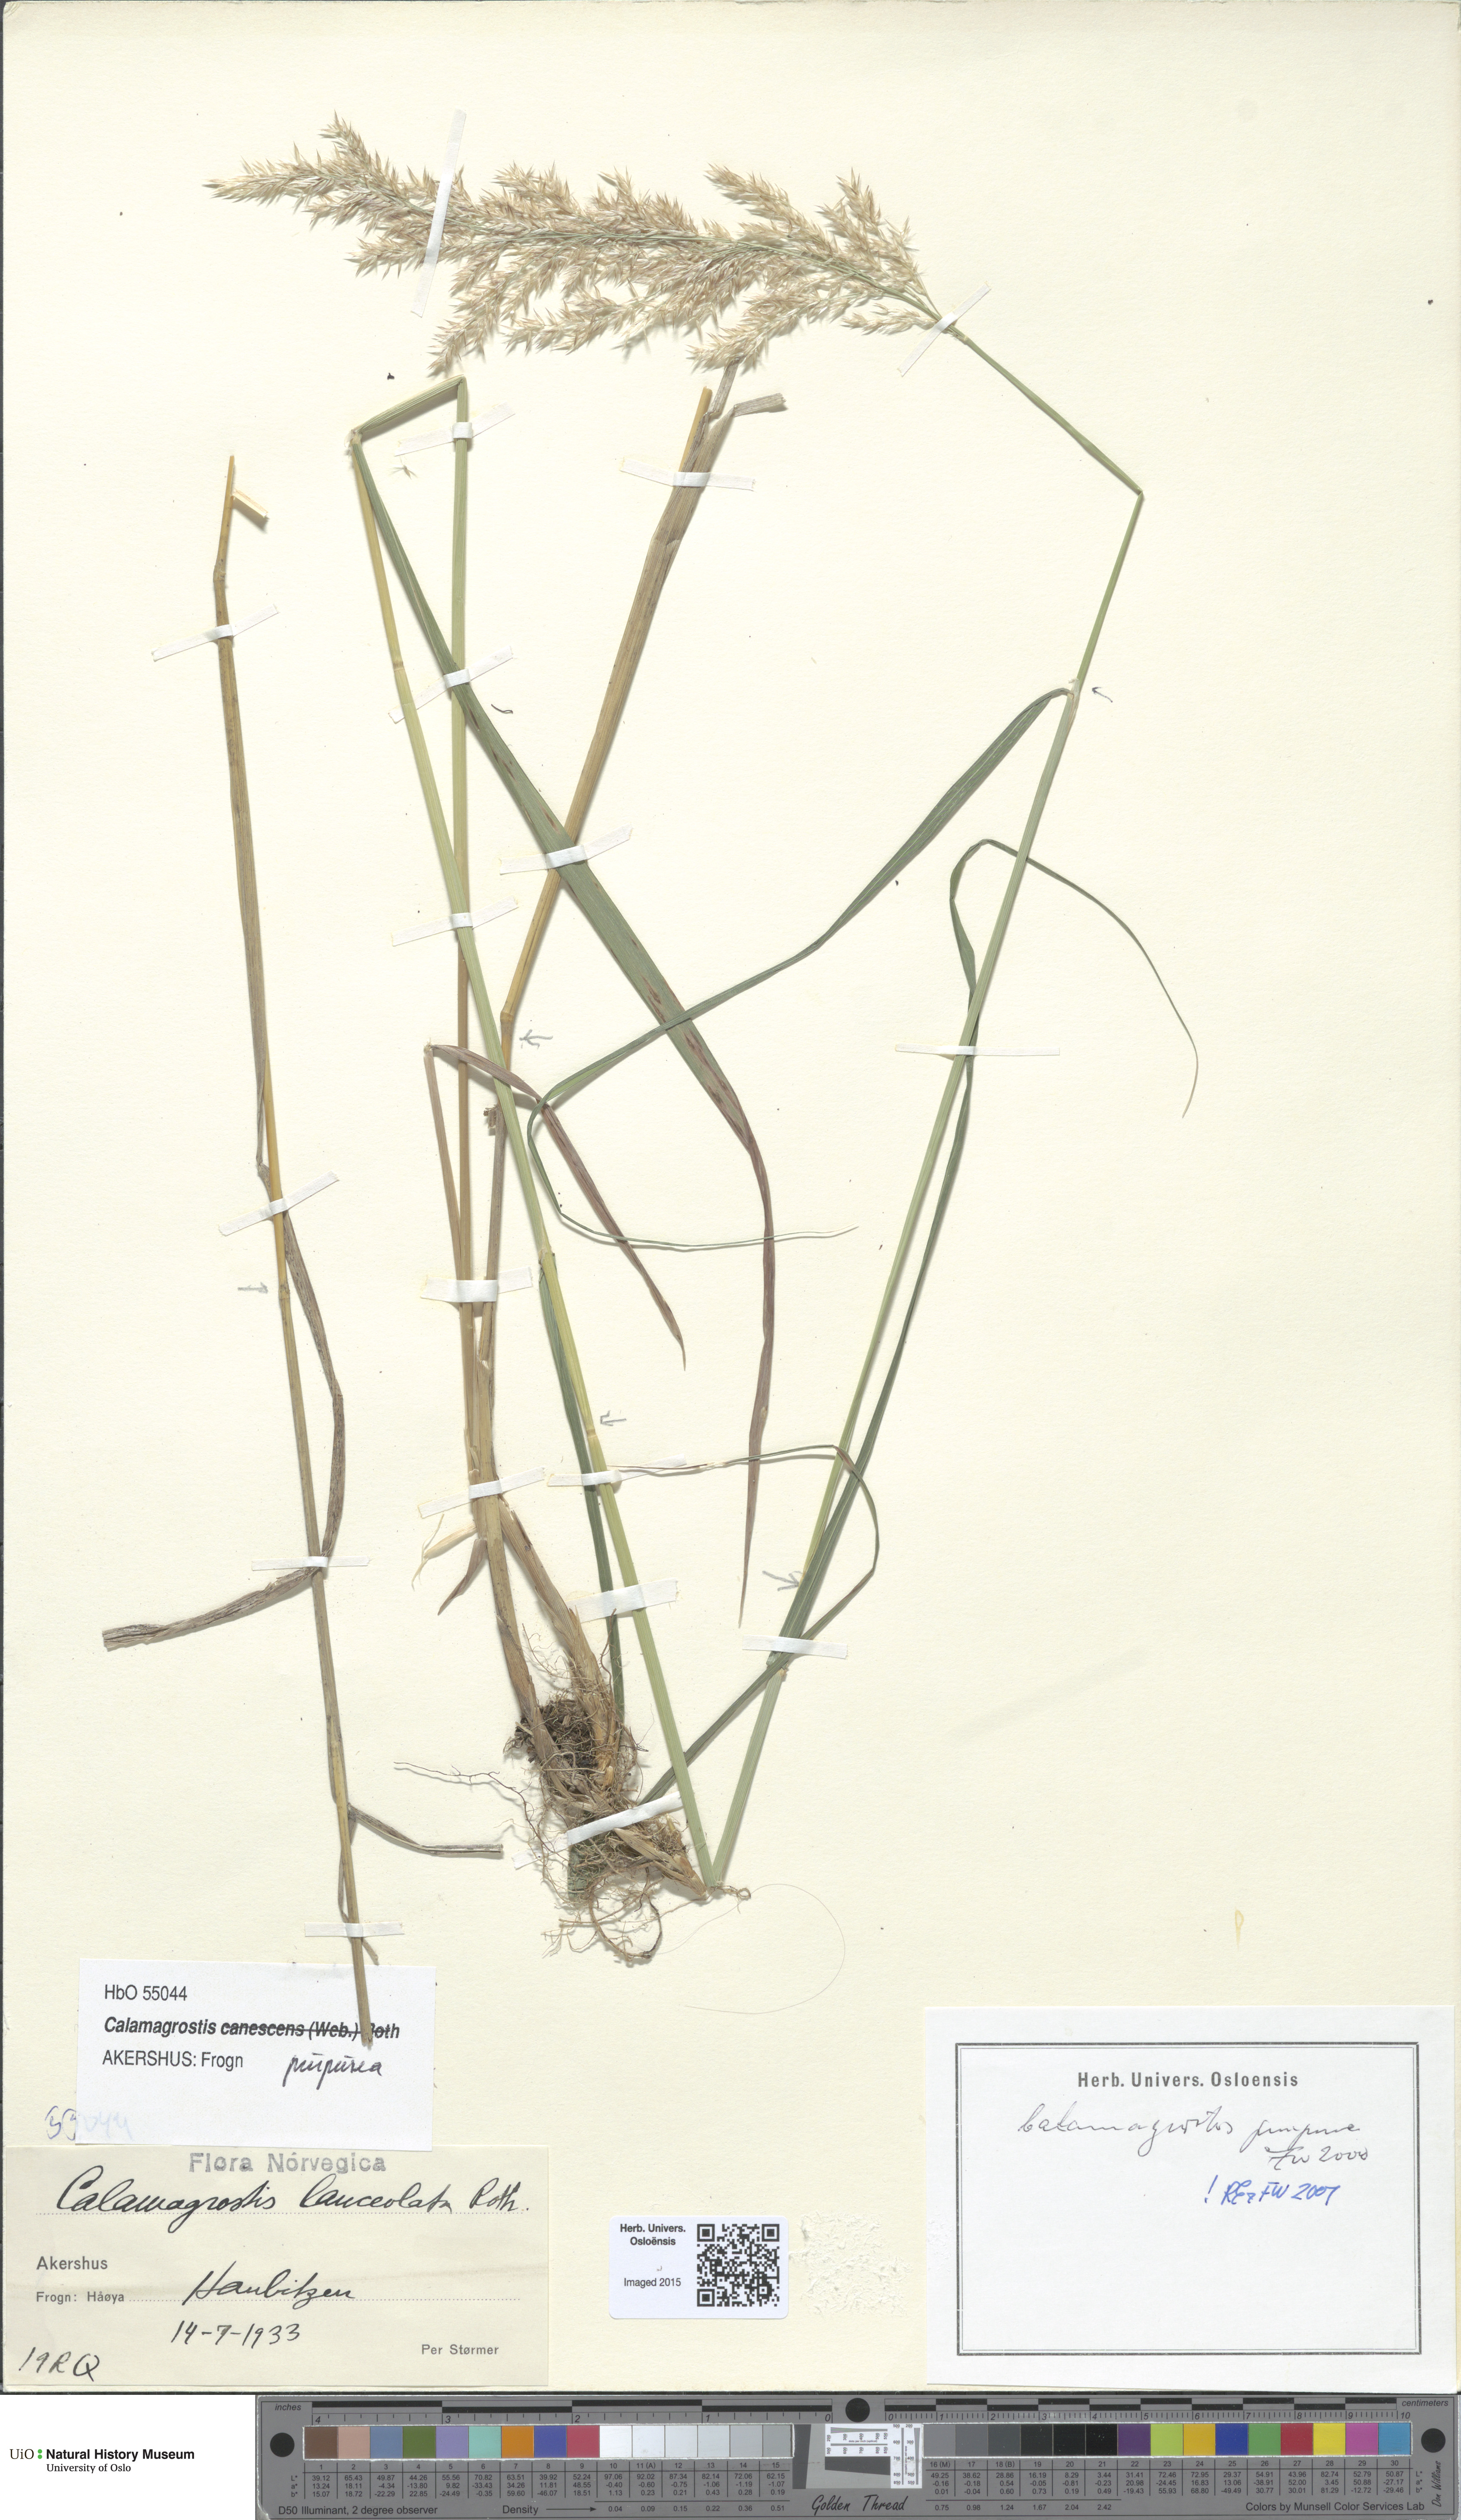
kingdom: Plantae
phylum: Tracheophyta
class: Liliopsida
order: Poales
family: Poaceae
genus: Calamagrostis
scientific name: Calamagrostis purpurea
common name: Scandinavian small-reed
